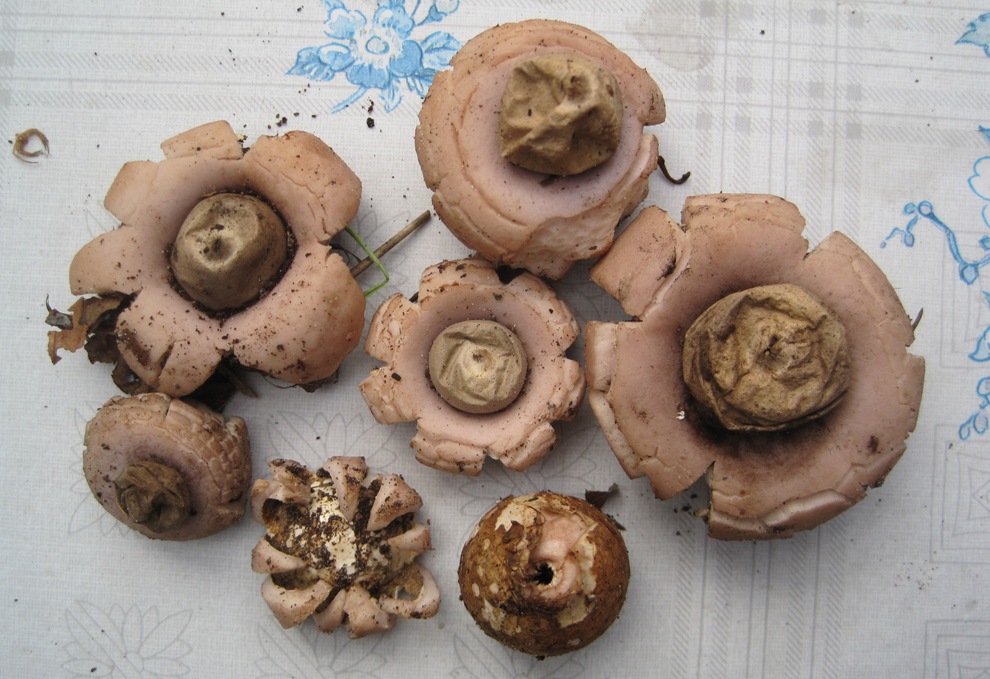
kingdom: Fungi
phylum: Basidiomycota
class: Agaricomycetes
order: Geastrales
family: Geastraceae
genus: Geastrum
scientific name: Geastrum saccatum
